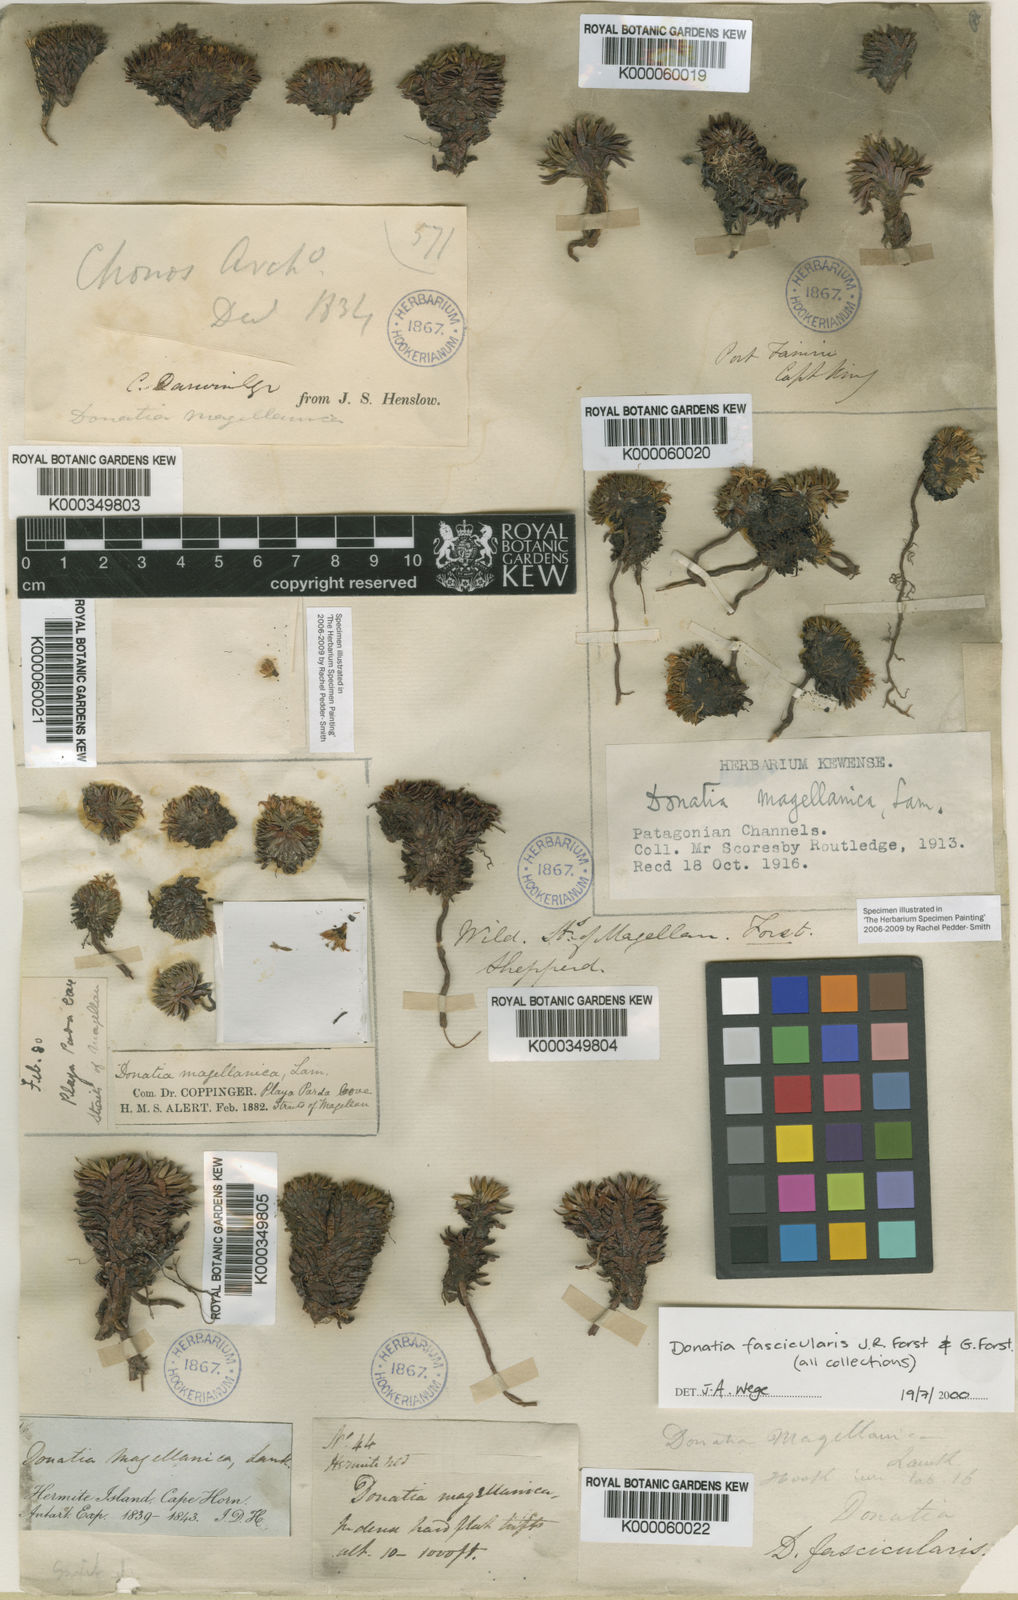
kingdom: Plantae
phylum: Tracheophyta
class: Magnoliopsida
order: Asterales
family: Stylidiaceae
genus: Donatia
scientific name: Donatia fascicularis
